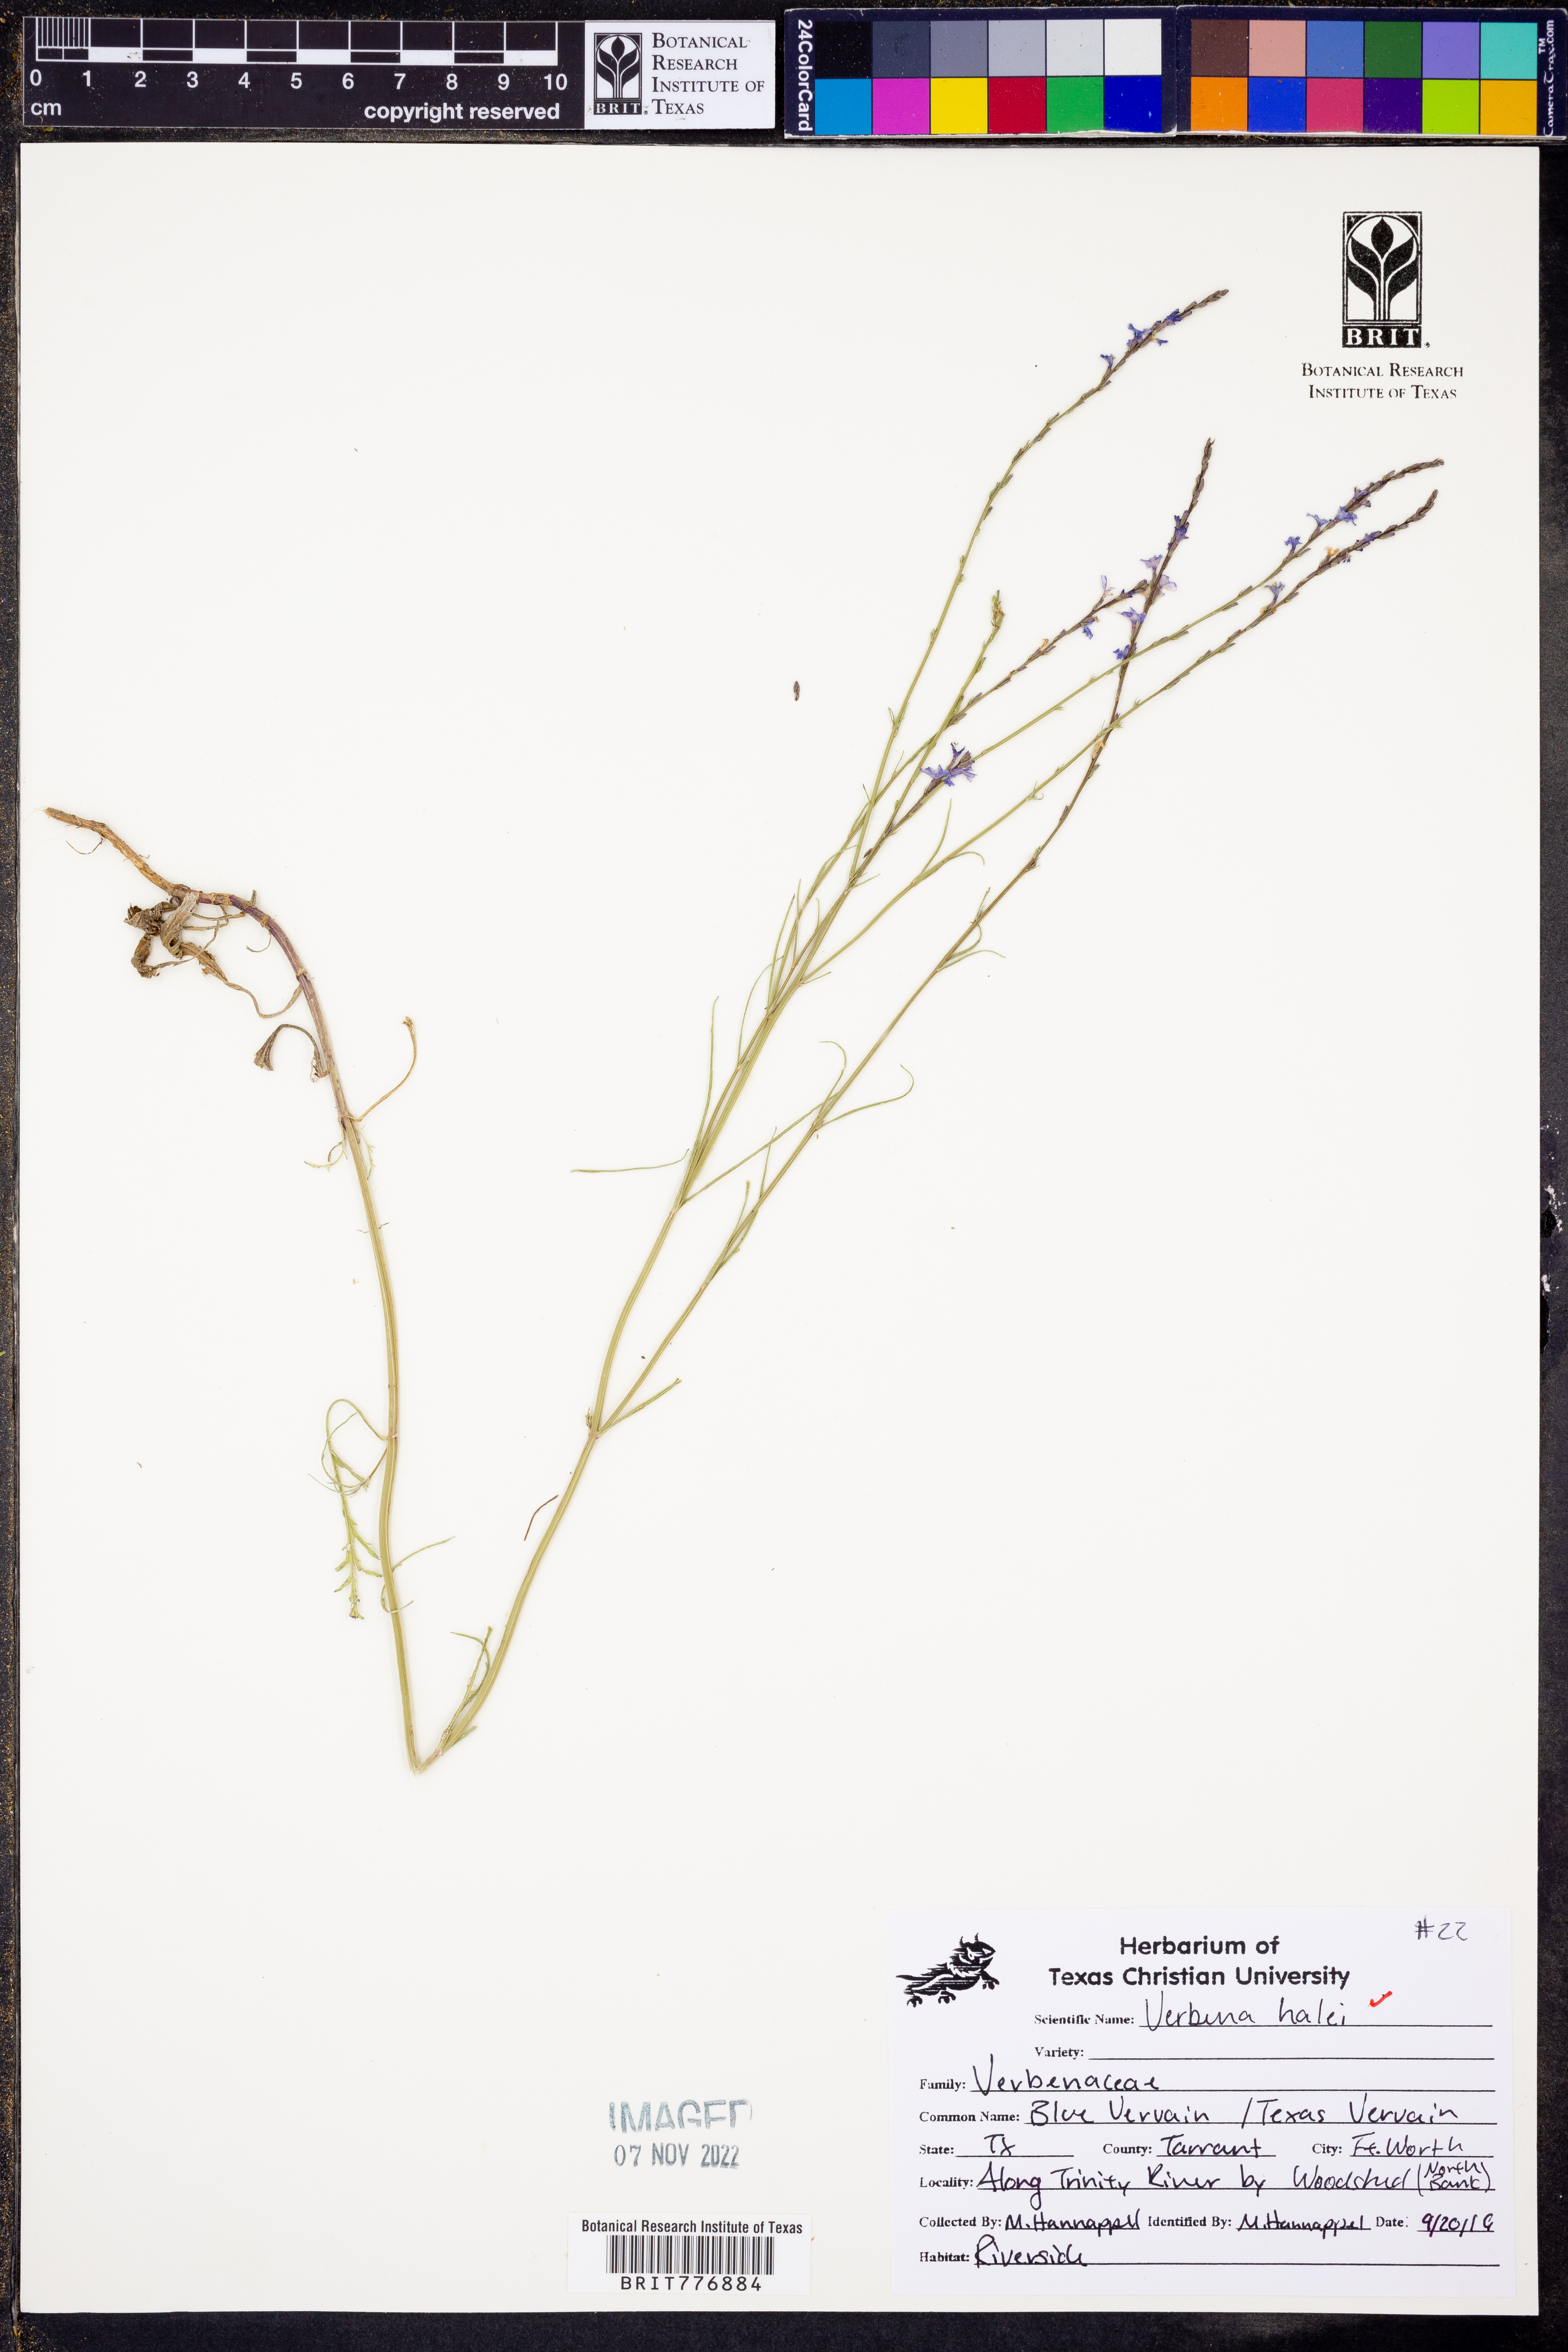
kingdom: Plantae
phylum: Tracheophyta
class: Magnoliopsida
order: Lamiales
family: Verbenaceae
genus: Verbena
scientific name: Verbena halei
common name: Texas vervain
